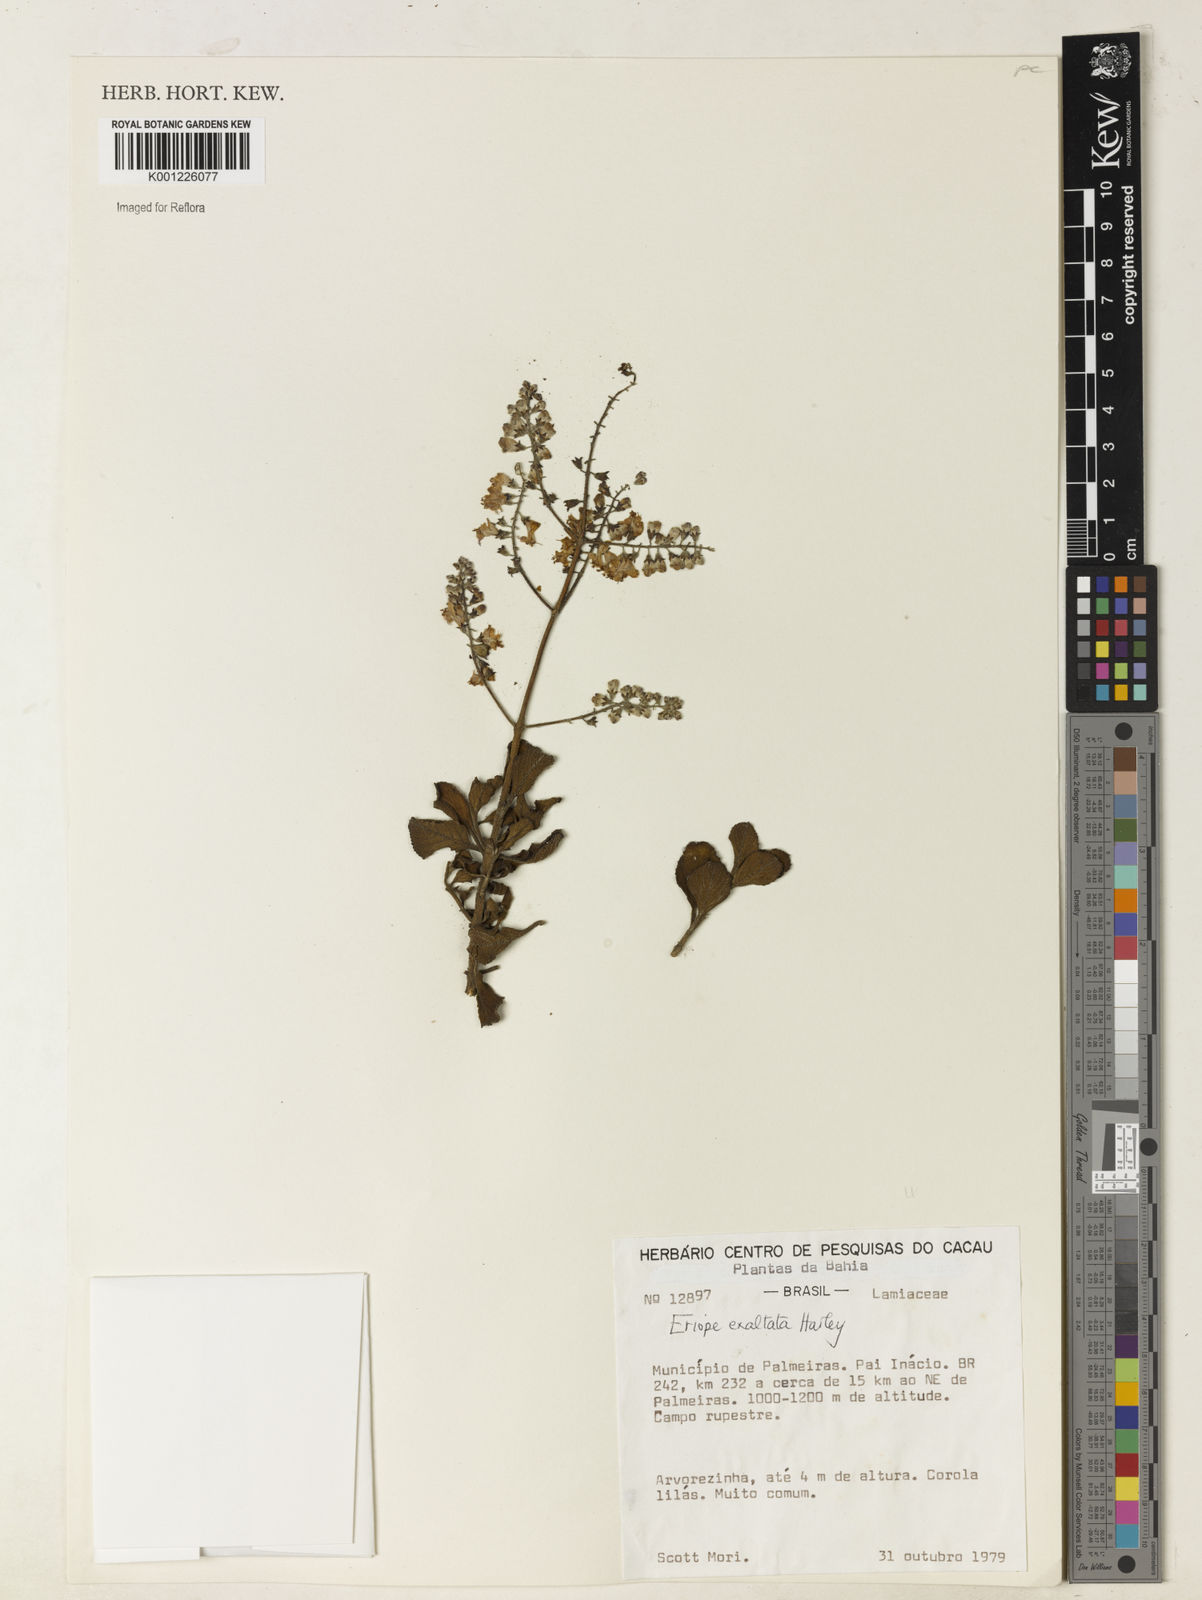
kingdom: Plantae
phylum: Tracheophyta
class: Magnoliopsida
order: Lamiales
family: Lamiaceae
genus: Eriope
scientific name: Eriope exaltata
